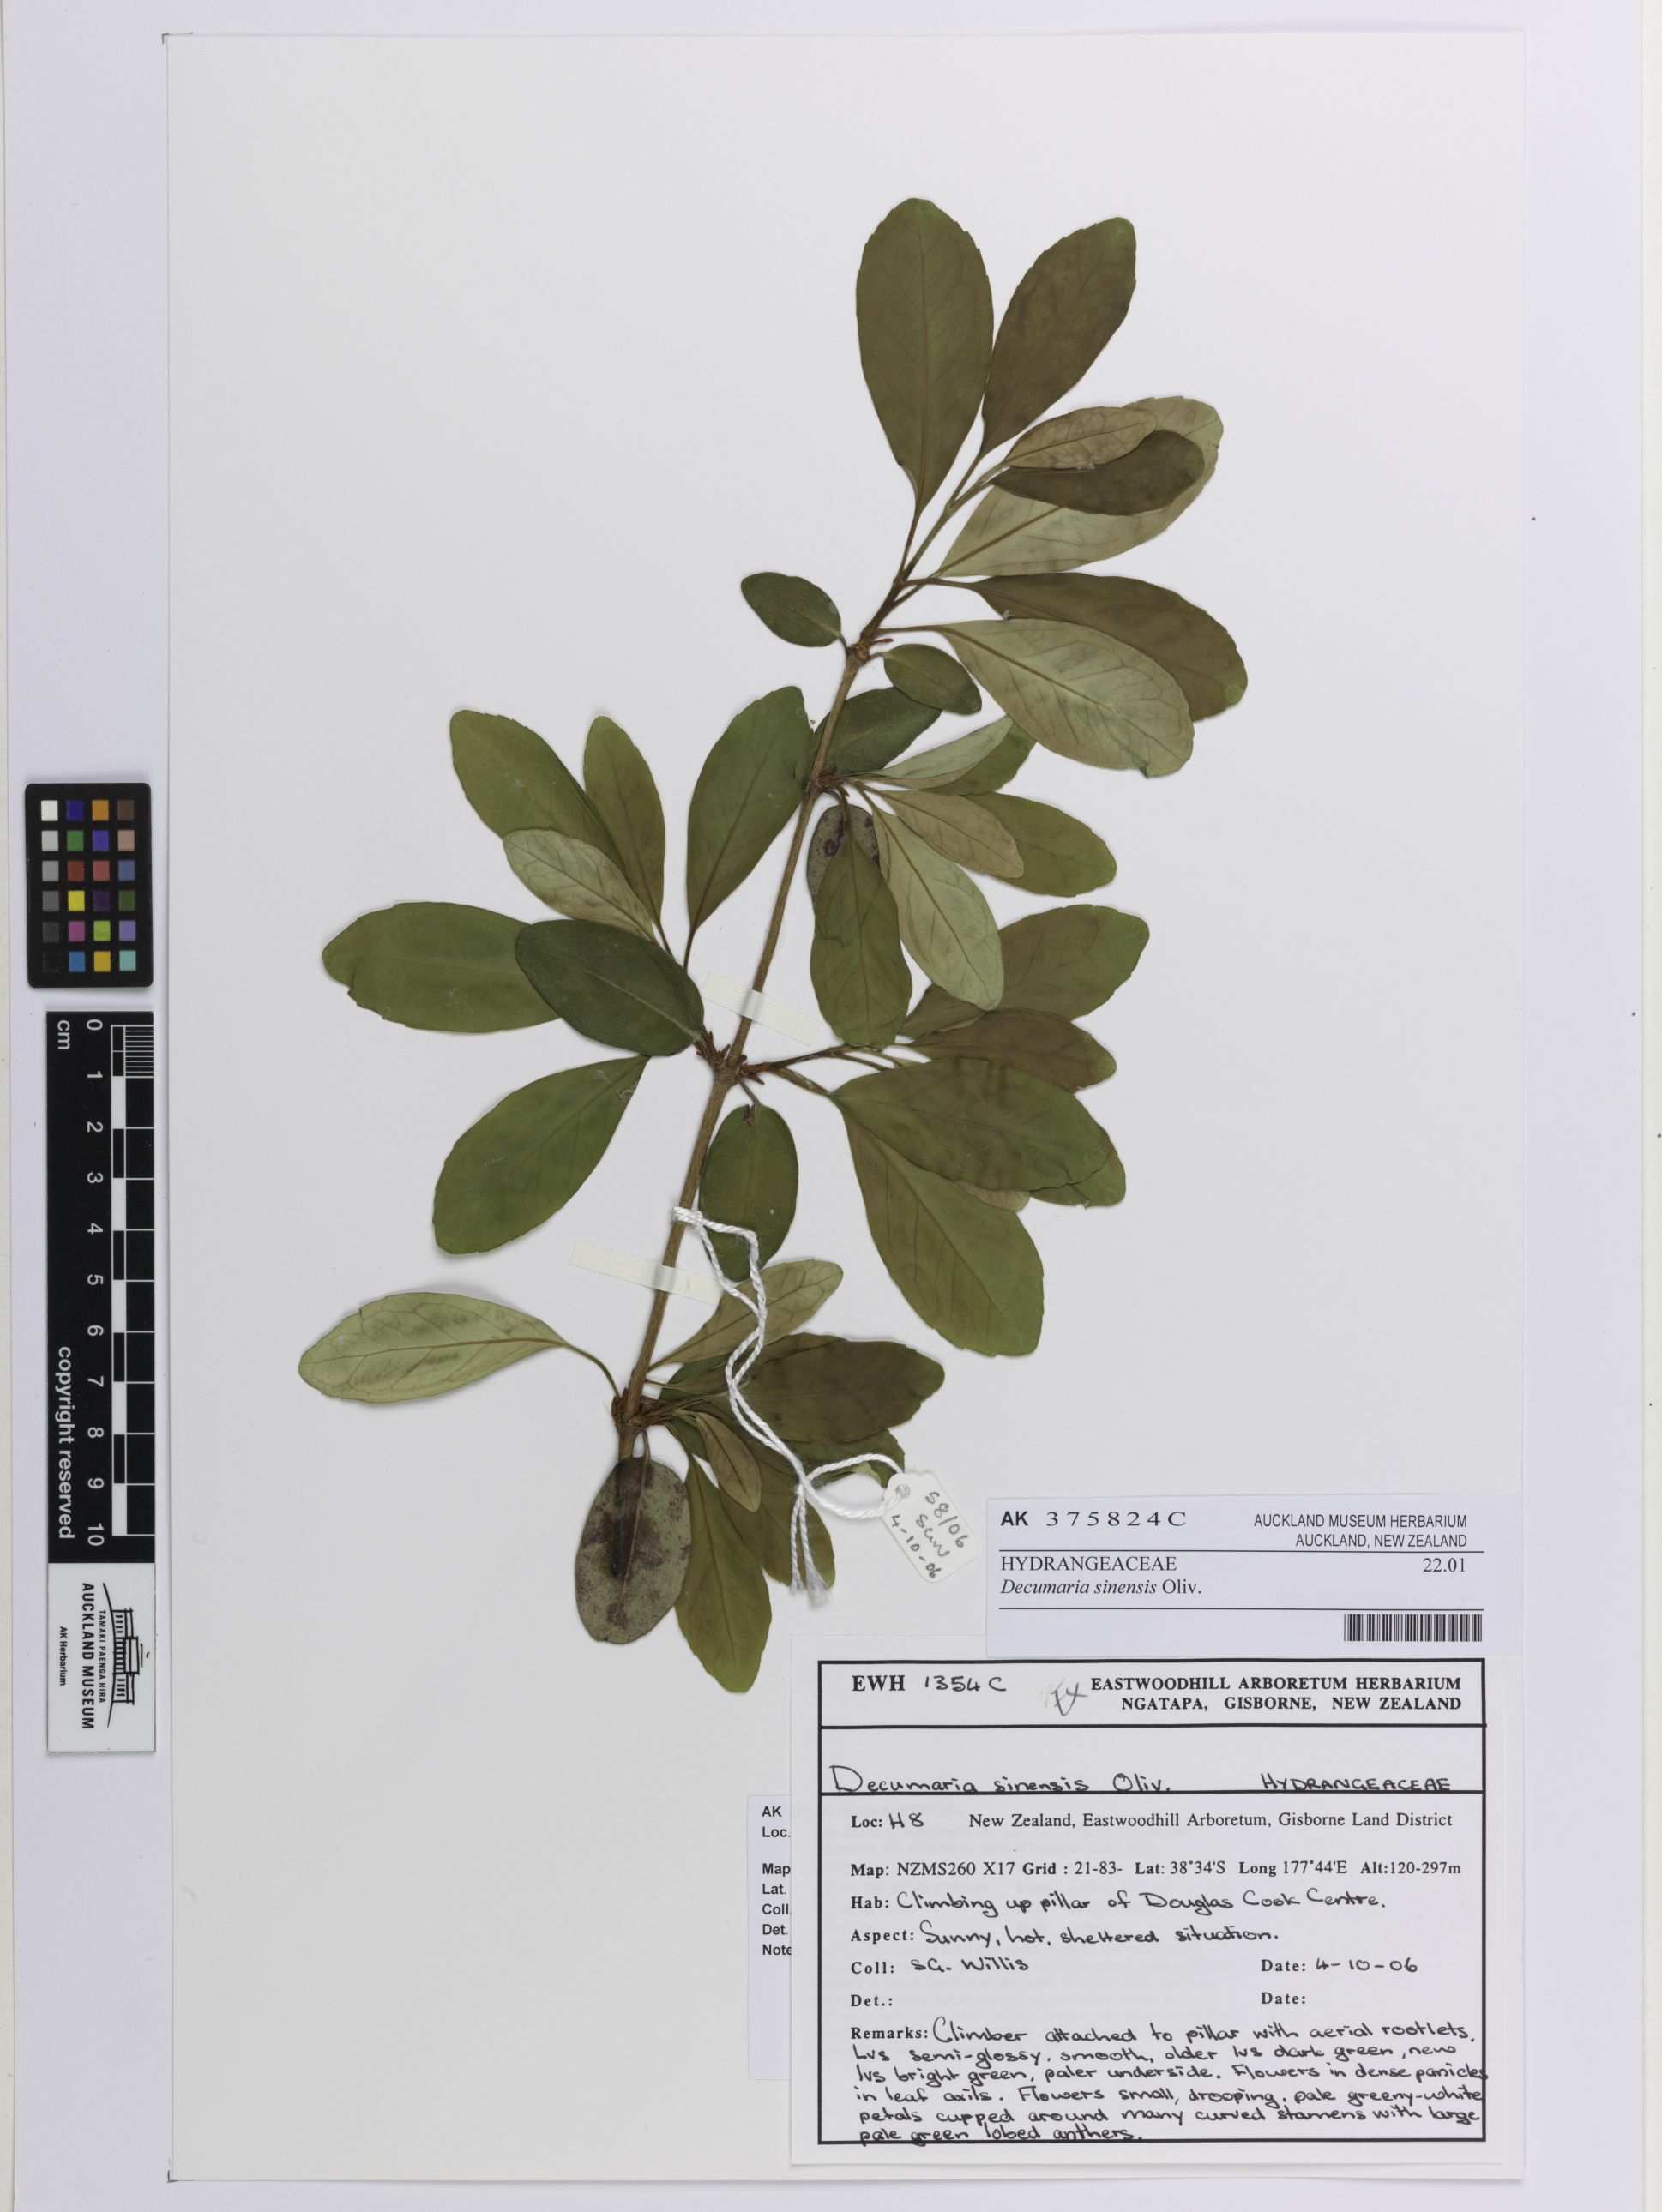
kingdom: Plantae
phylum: Tracheophyta
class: Magnoliopsida
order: Cornales
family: Hydrangeaceae
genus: Hydrangea
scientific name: Hydrangea obtusifolia
